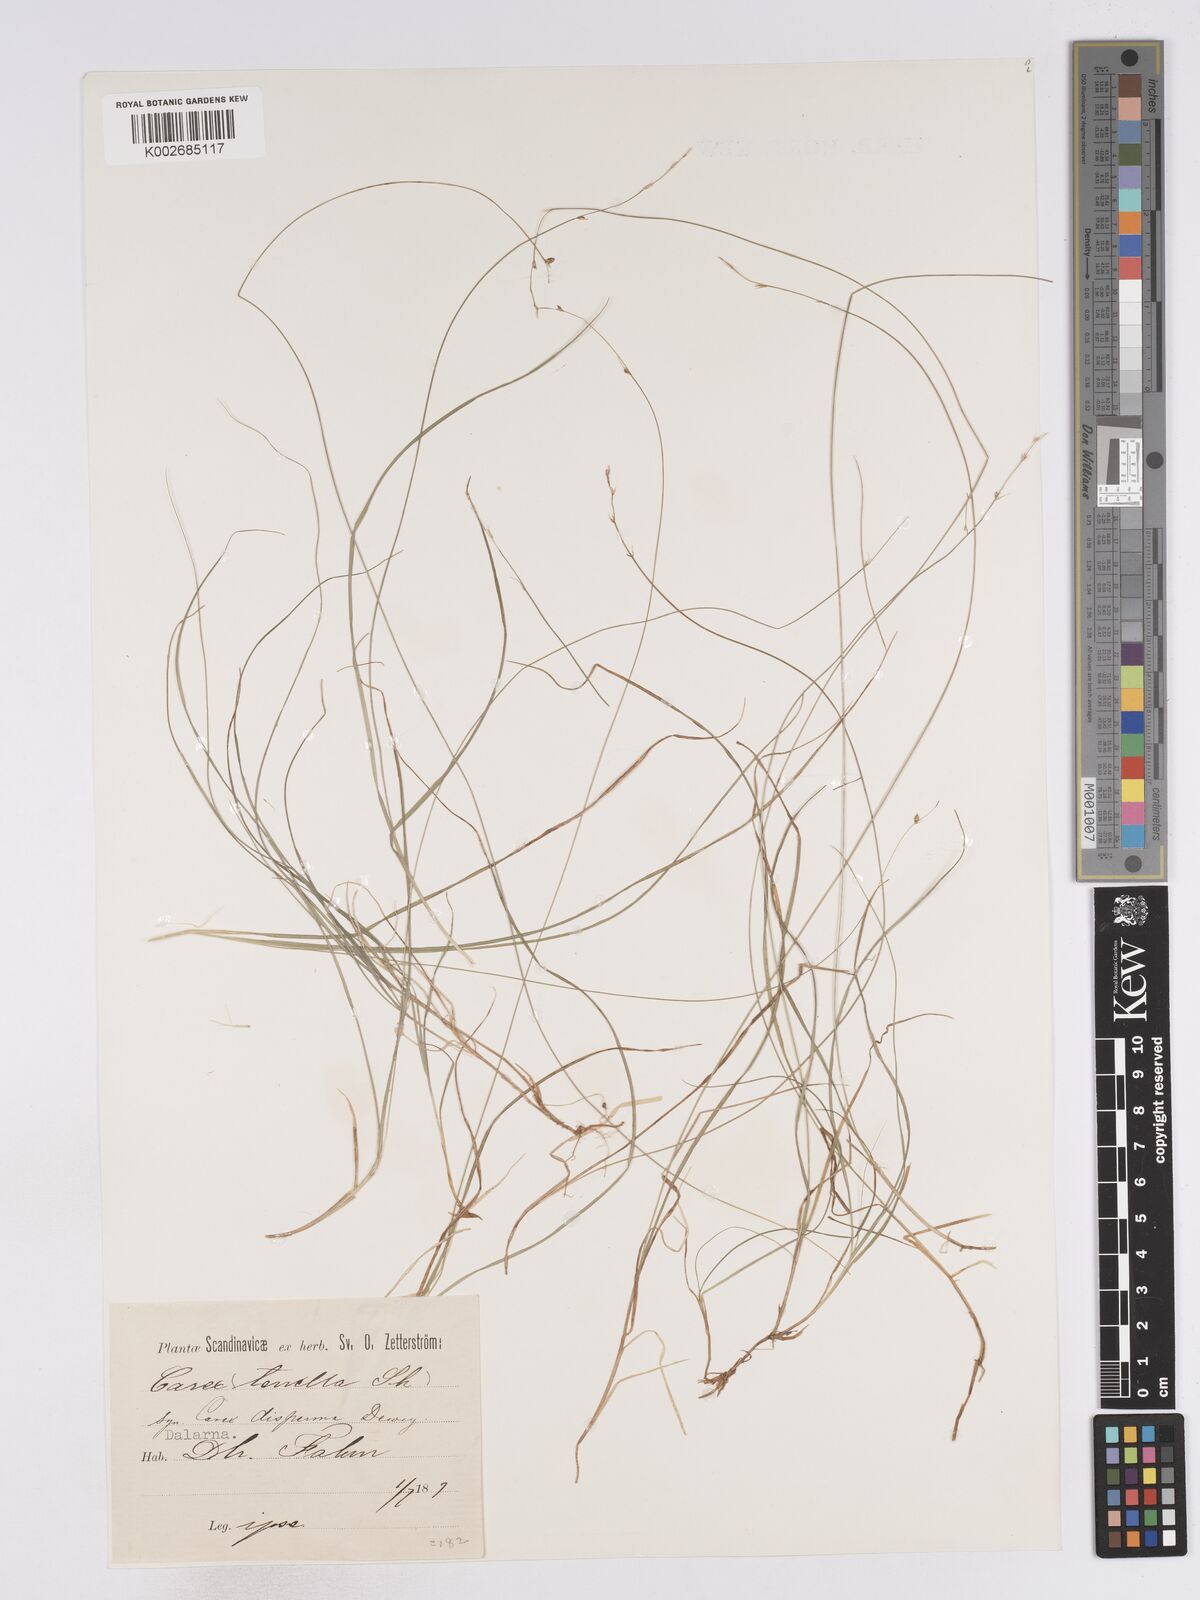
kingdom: Plantae
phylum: Tracheophyta
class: Liliopsida
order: Poales
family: Cyperaceae
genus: Carex
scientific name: Carex disperma
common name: Short-leaved sedge
